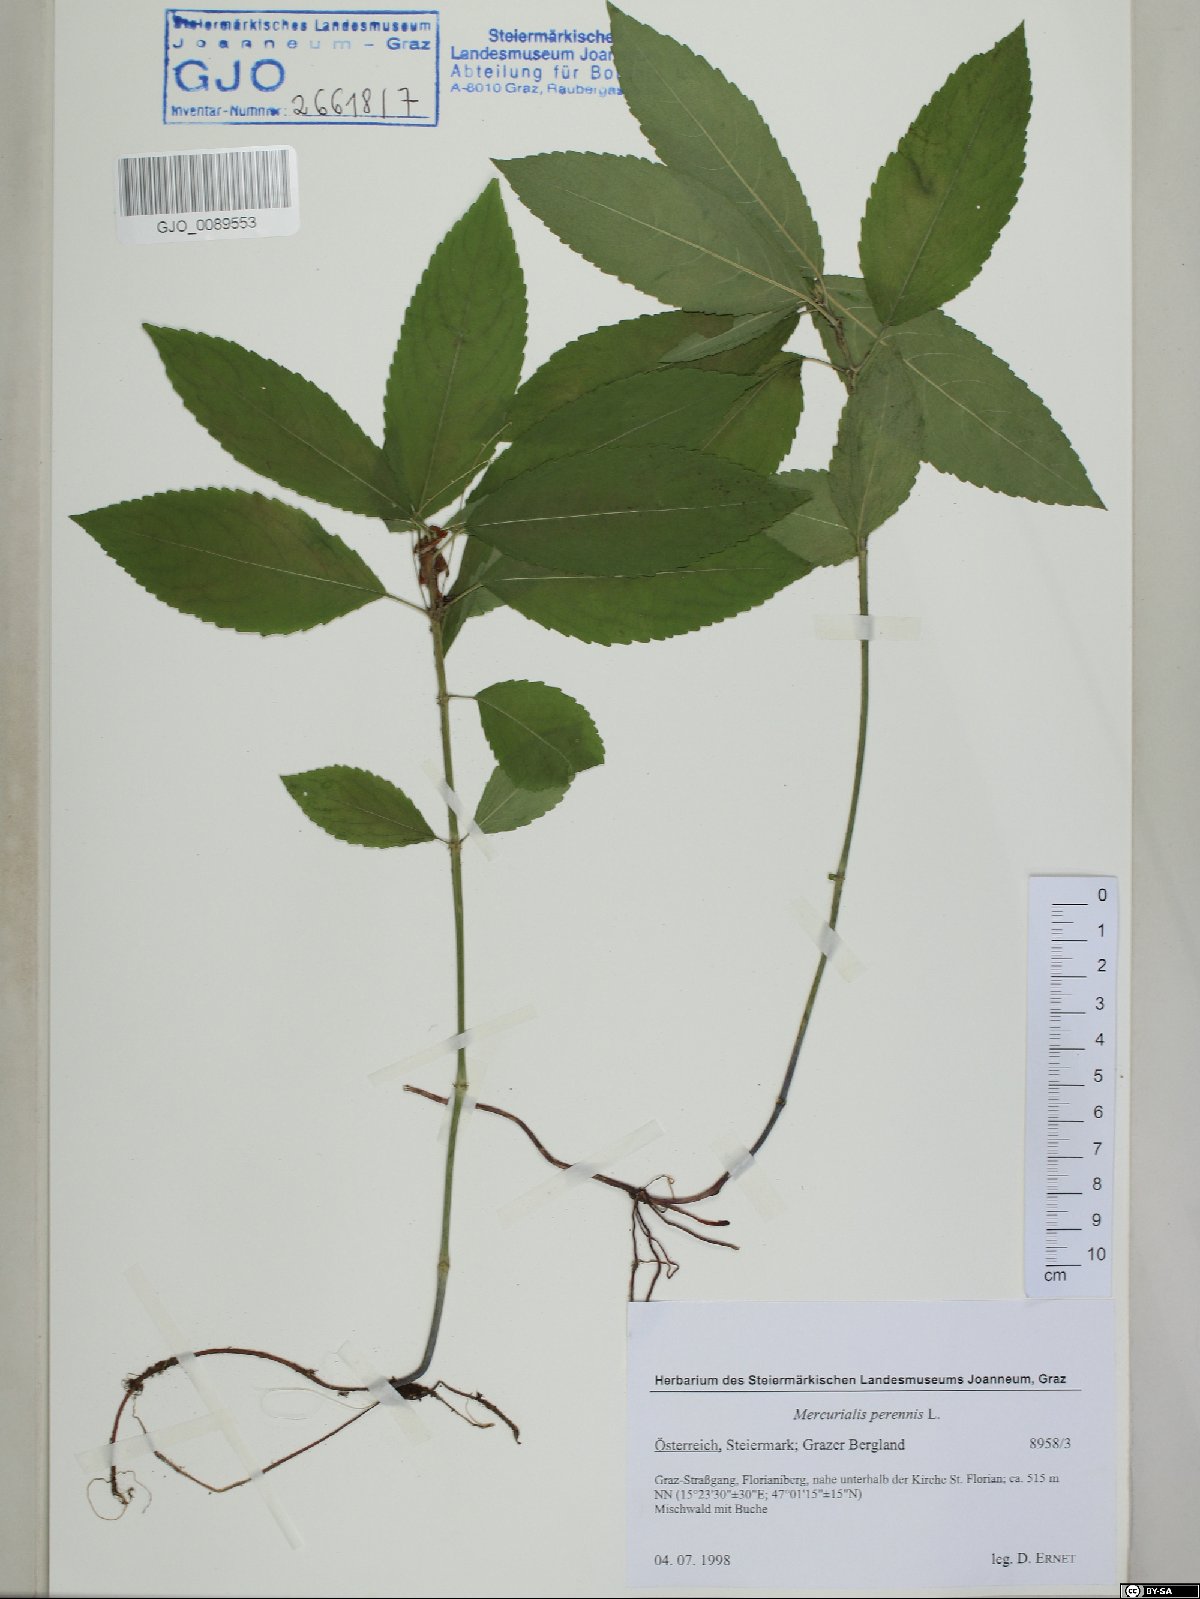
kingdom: Plantae
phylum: Tracheophyta
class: Magnoliopsida
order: Malpighiales
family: Euphorbiaceae
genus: Mercurialis
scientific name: Mercurialis perennis
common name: Dog mercury
